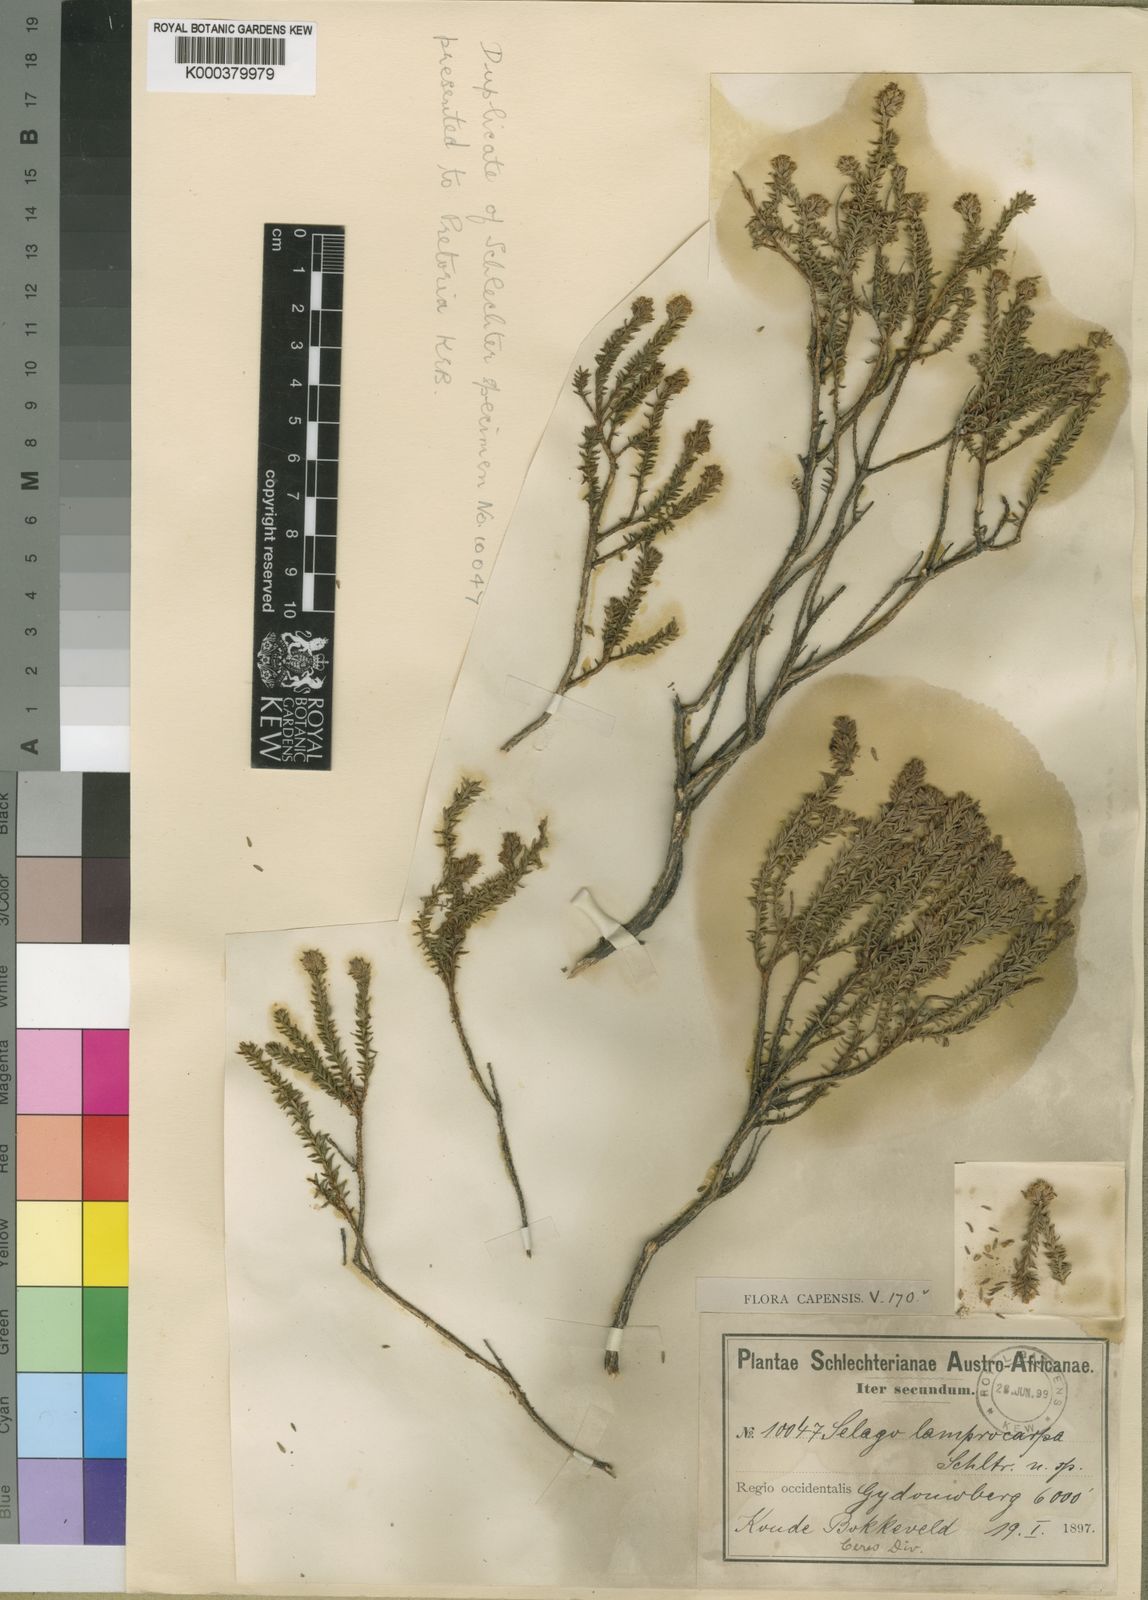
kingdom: Plantae
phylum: Tracheophyta
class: Magnoliopsida
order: Lamiales
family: Scrophulariaceae
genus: Selago
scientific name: Selago lamprocarpa
